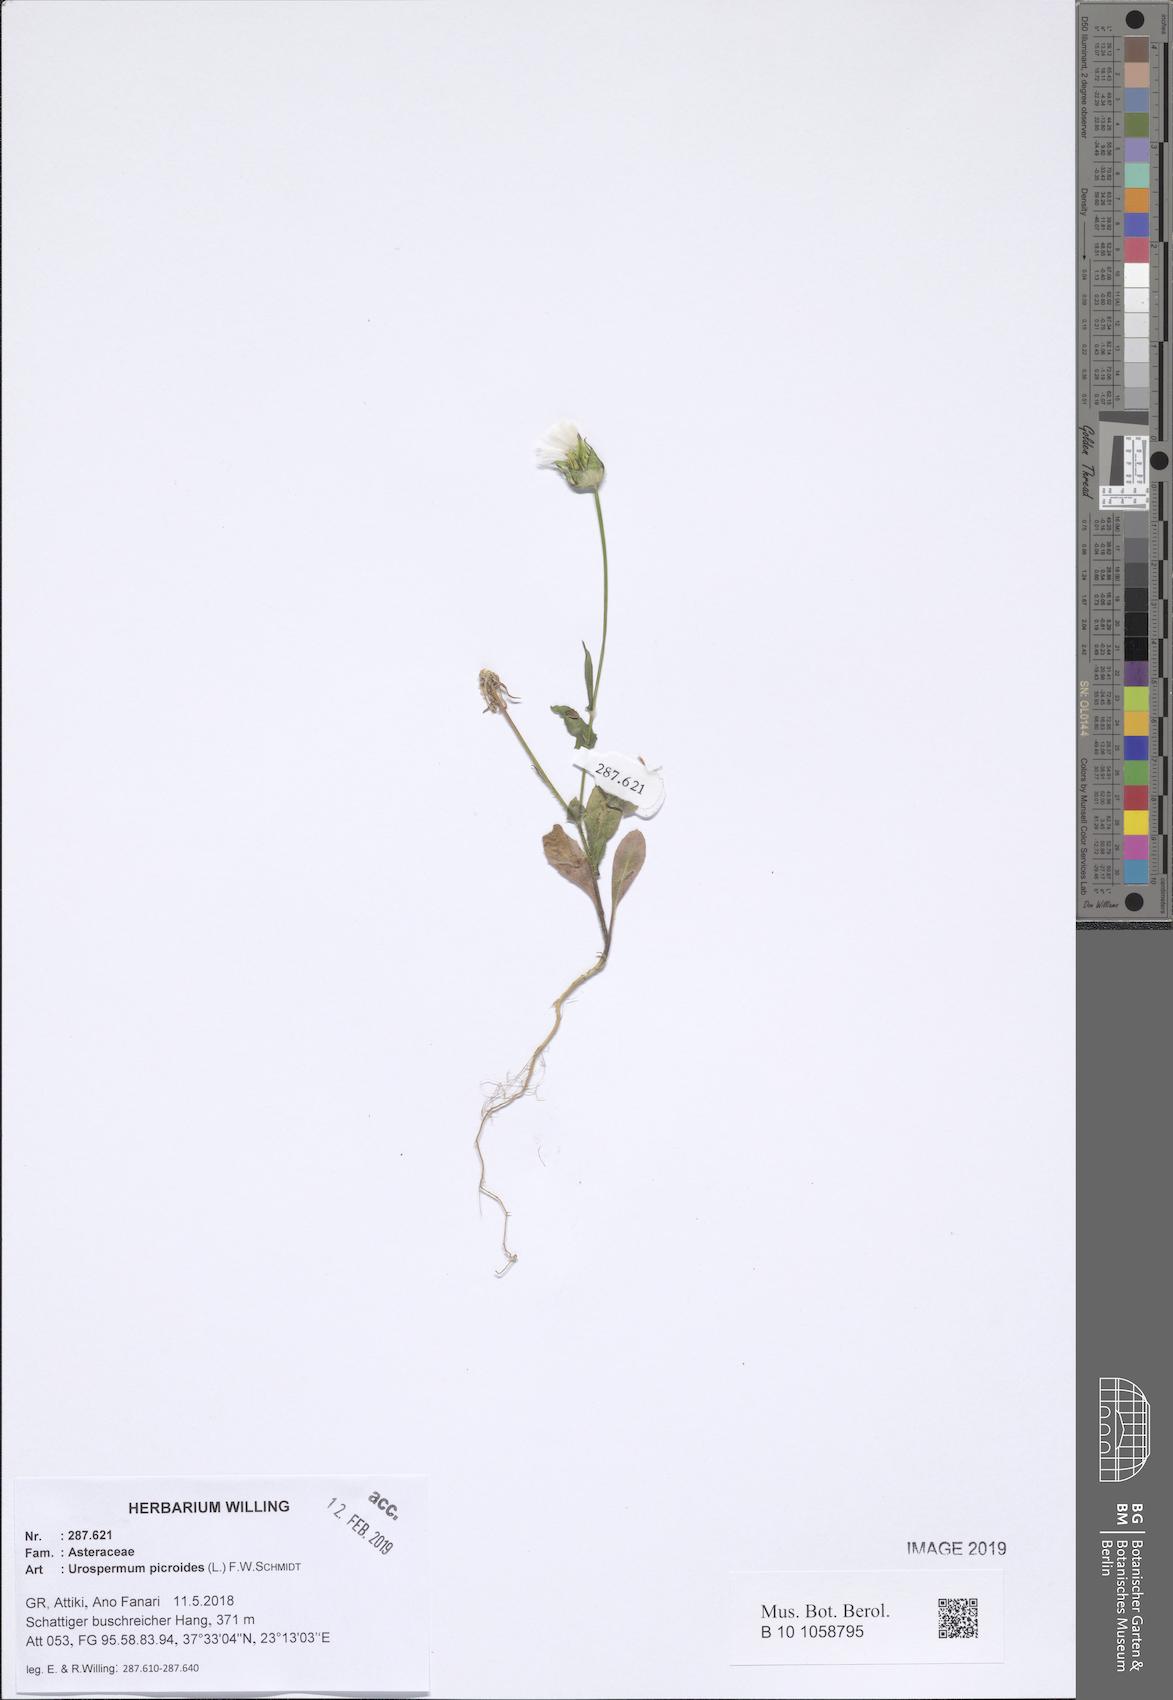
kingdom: Plantae
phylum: Tracheophyta
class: Magnoliopsida
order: Asterales
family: Asteraceae
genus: Urospermum
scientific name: Urospermum picroides
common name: False hawkbit
